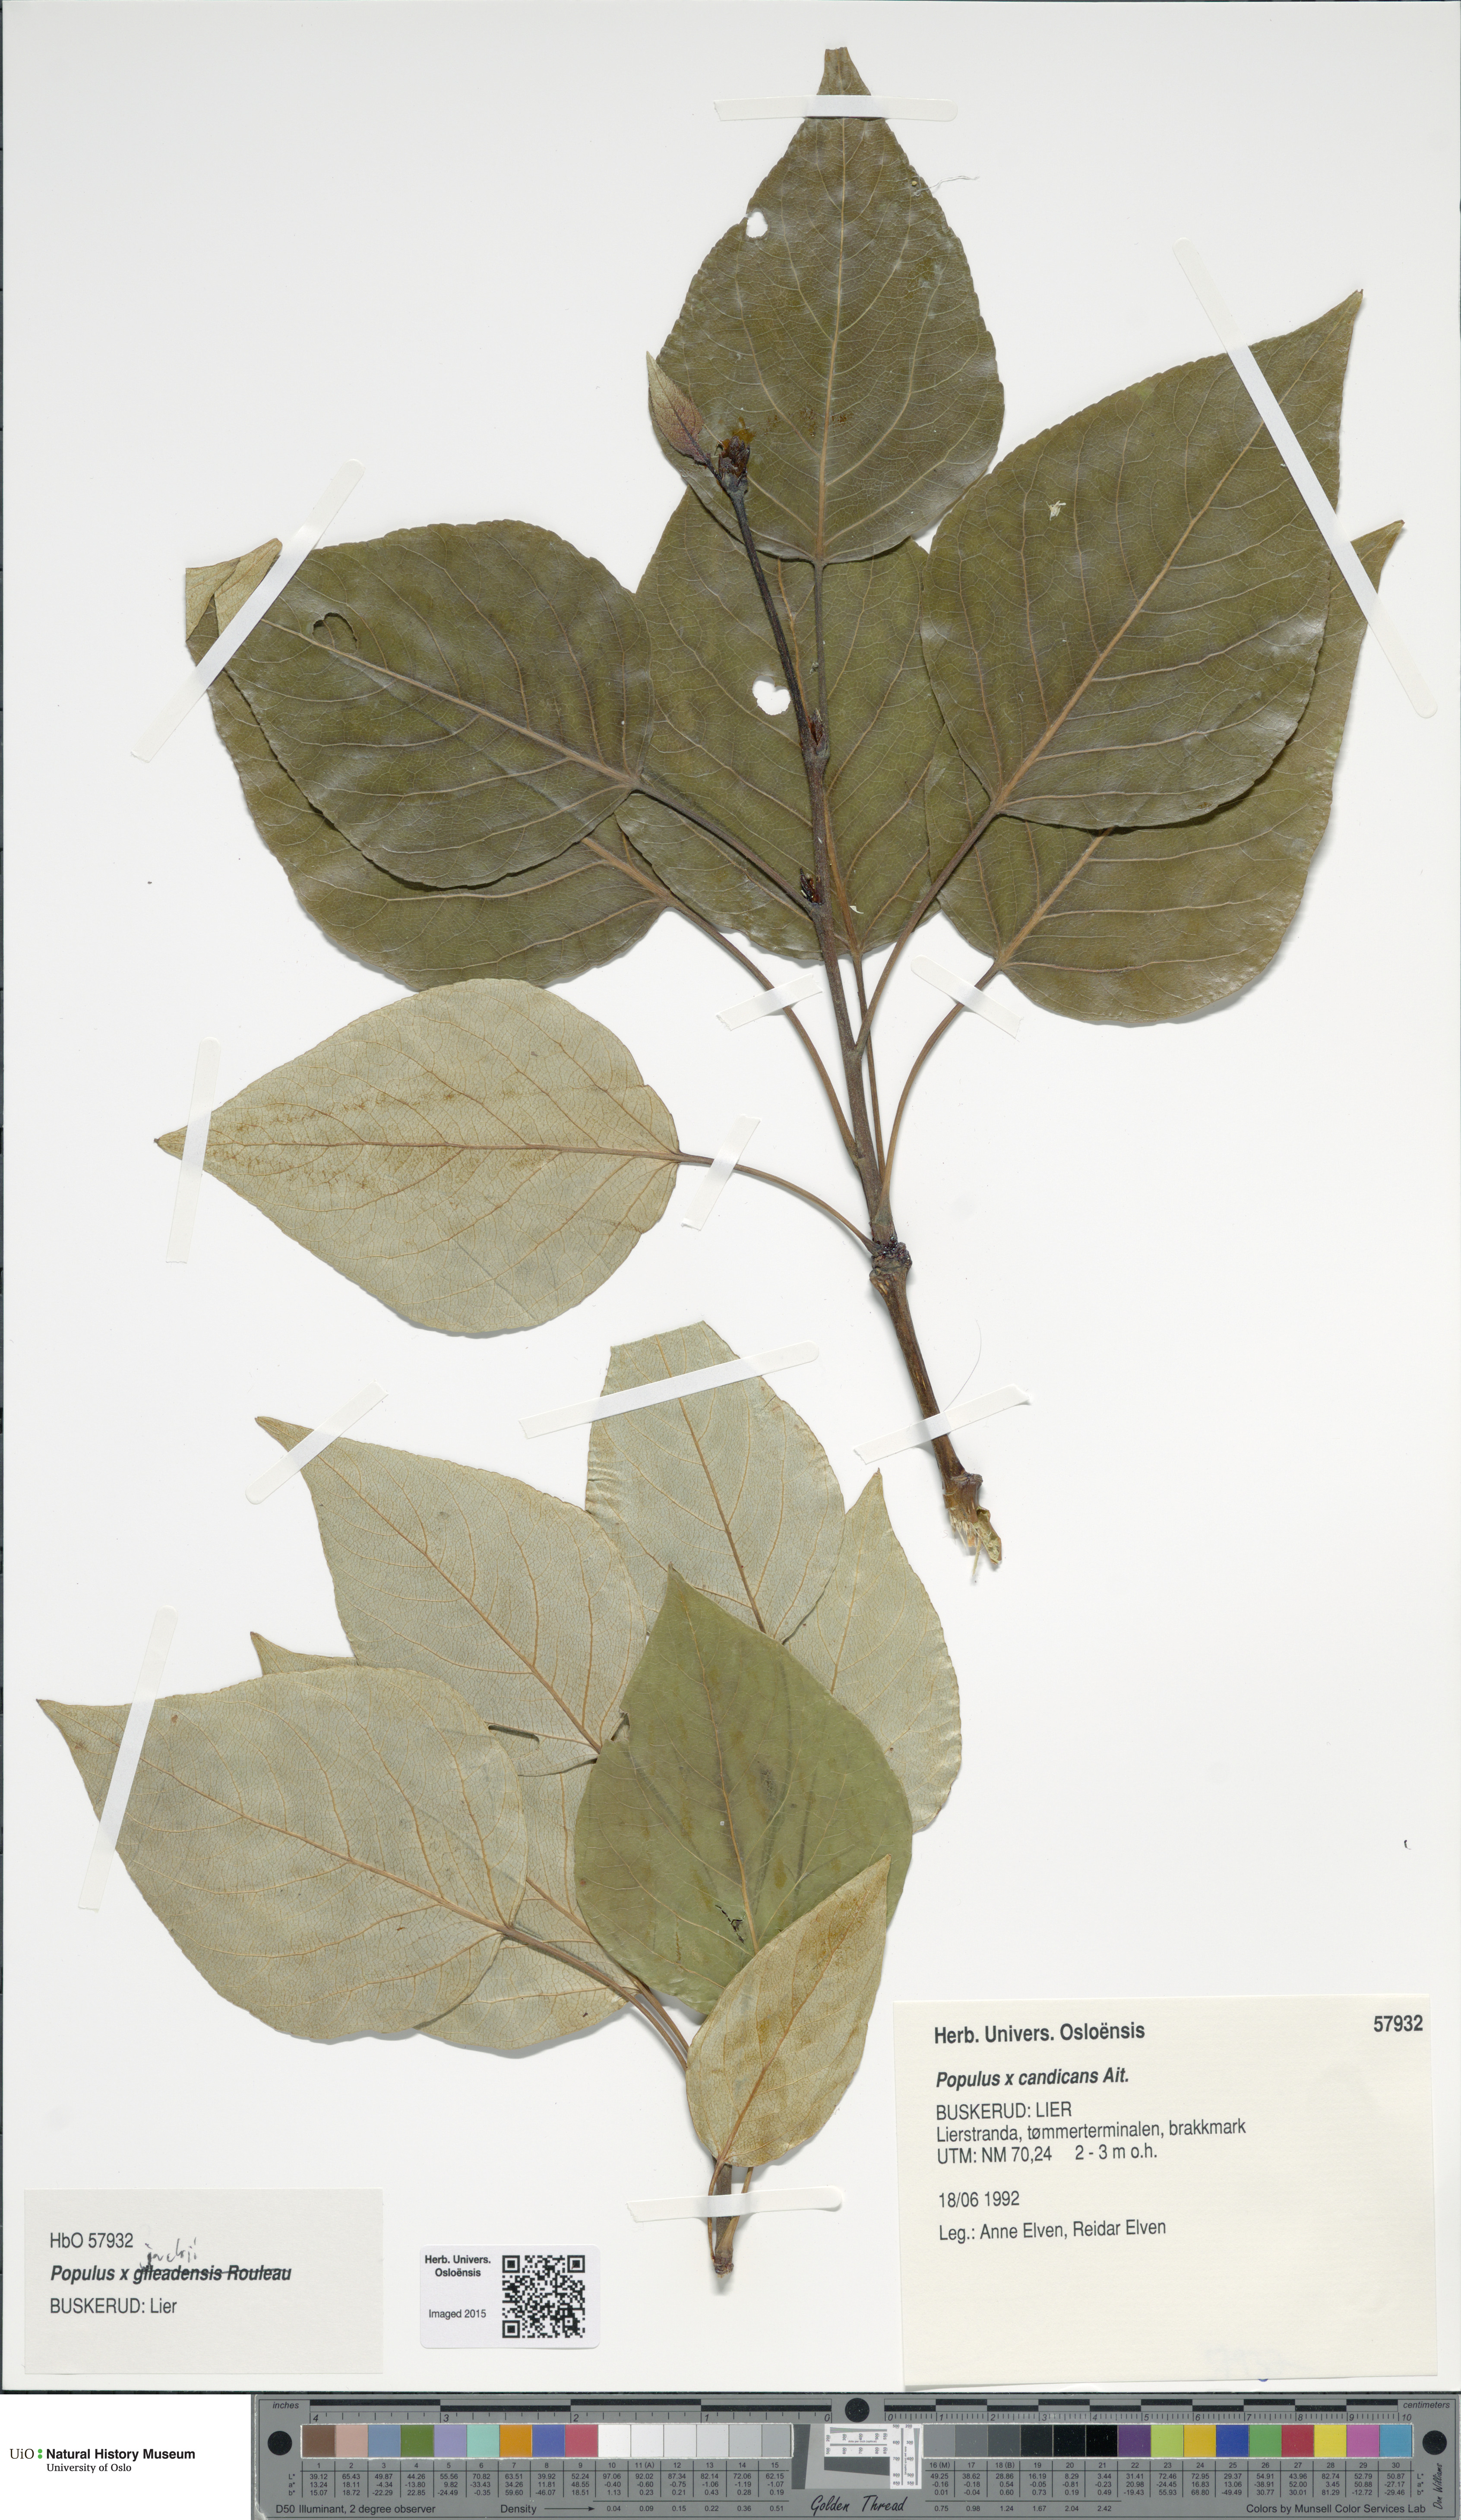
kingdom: Plantae
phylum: Tracheophyta
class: Magnoliopsida
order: Malpighiales
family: Salicaceae
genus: Populus
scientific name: Populus balsamifera
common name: Balsam poplar
